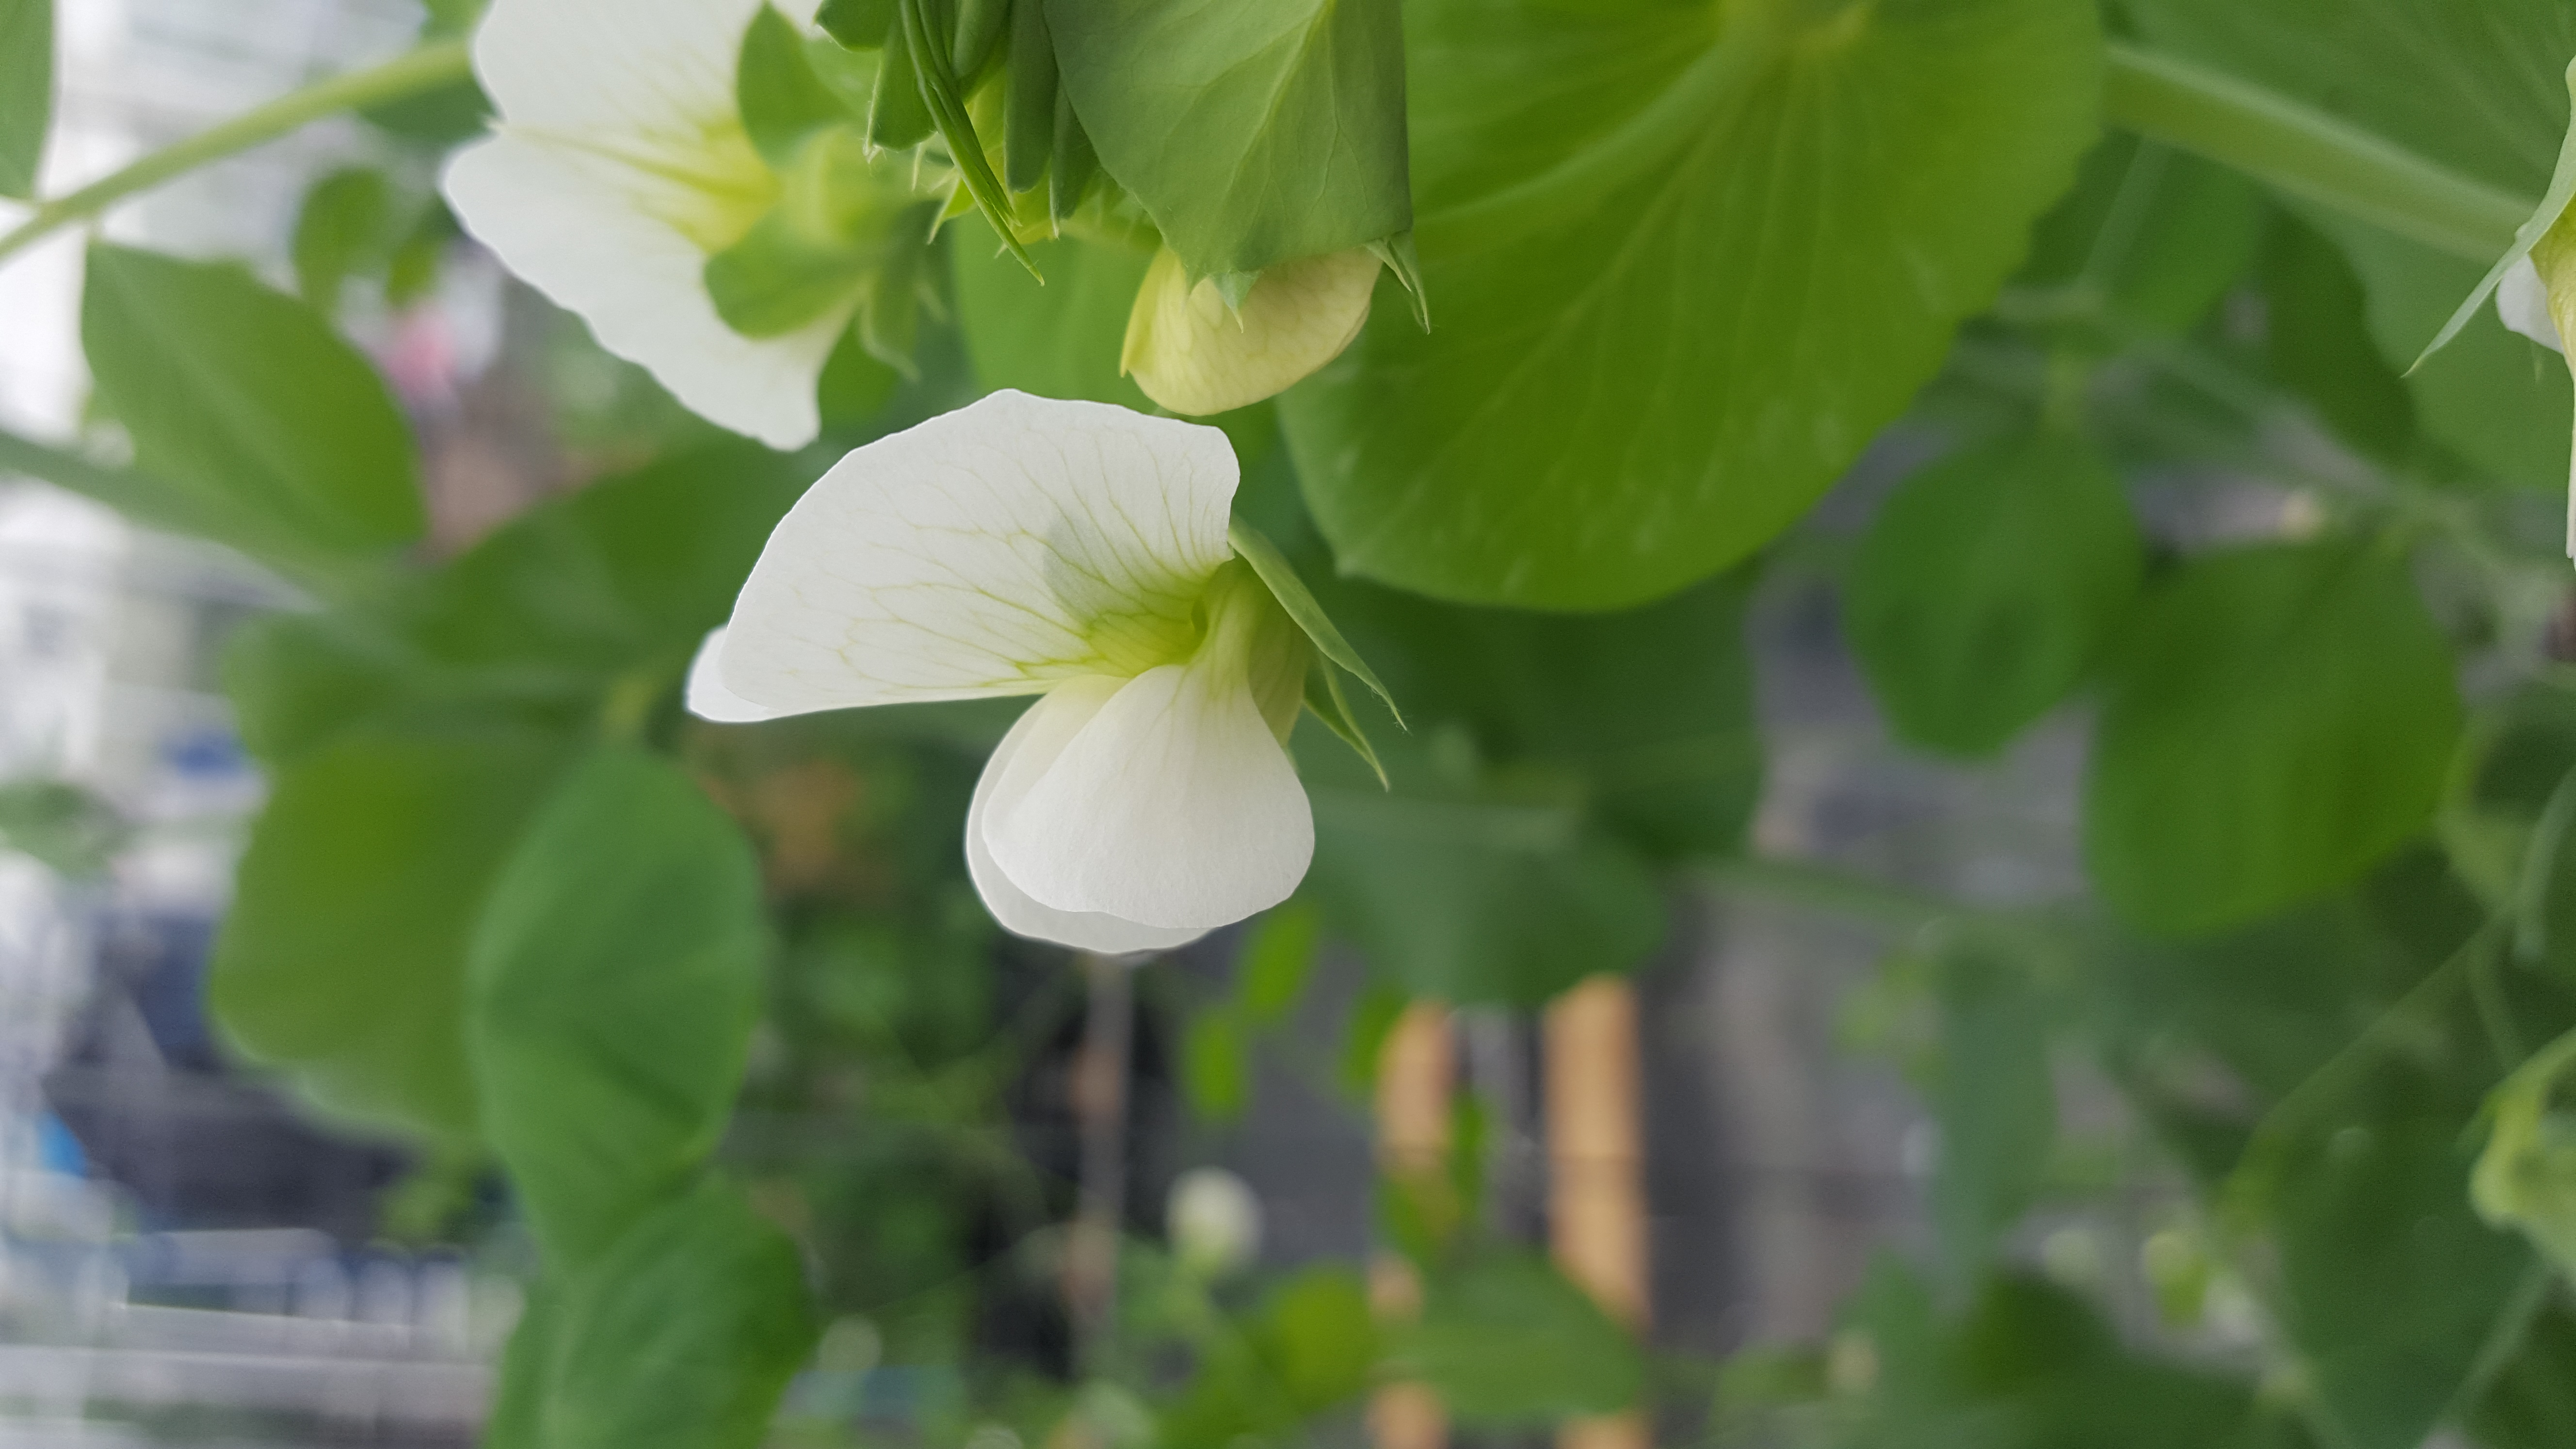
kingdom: Plantae
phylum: Tracheophyta
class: Magnoliopsida
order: Fabales
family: Fabaceae
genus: Lathyrus
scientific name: Lathyrus oleraceus
